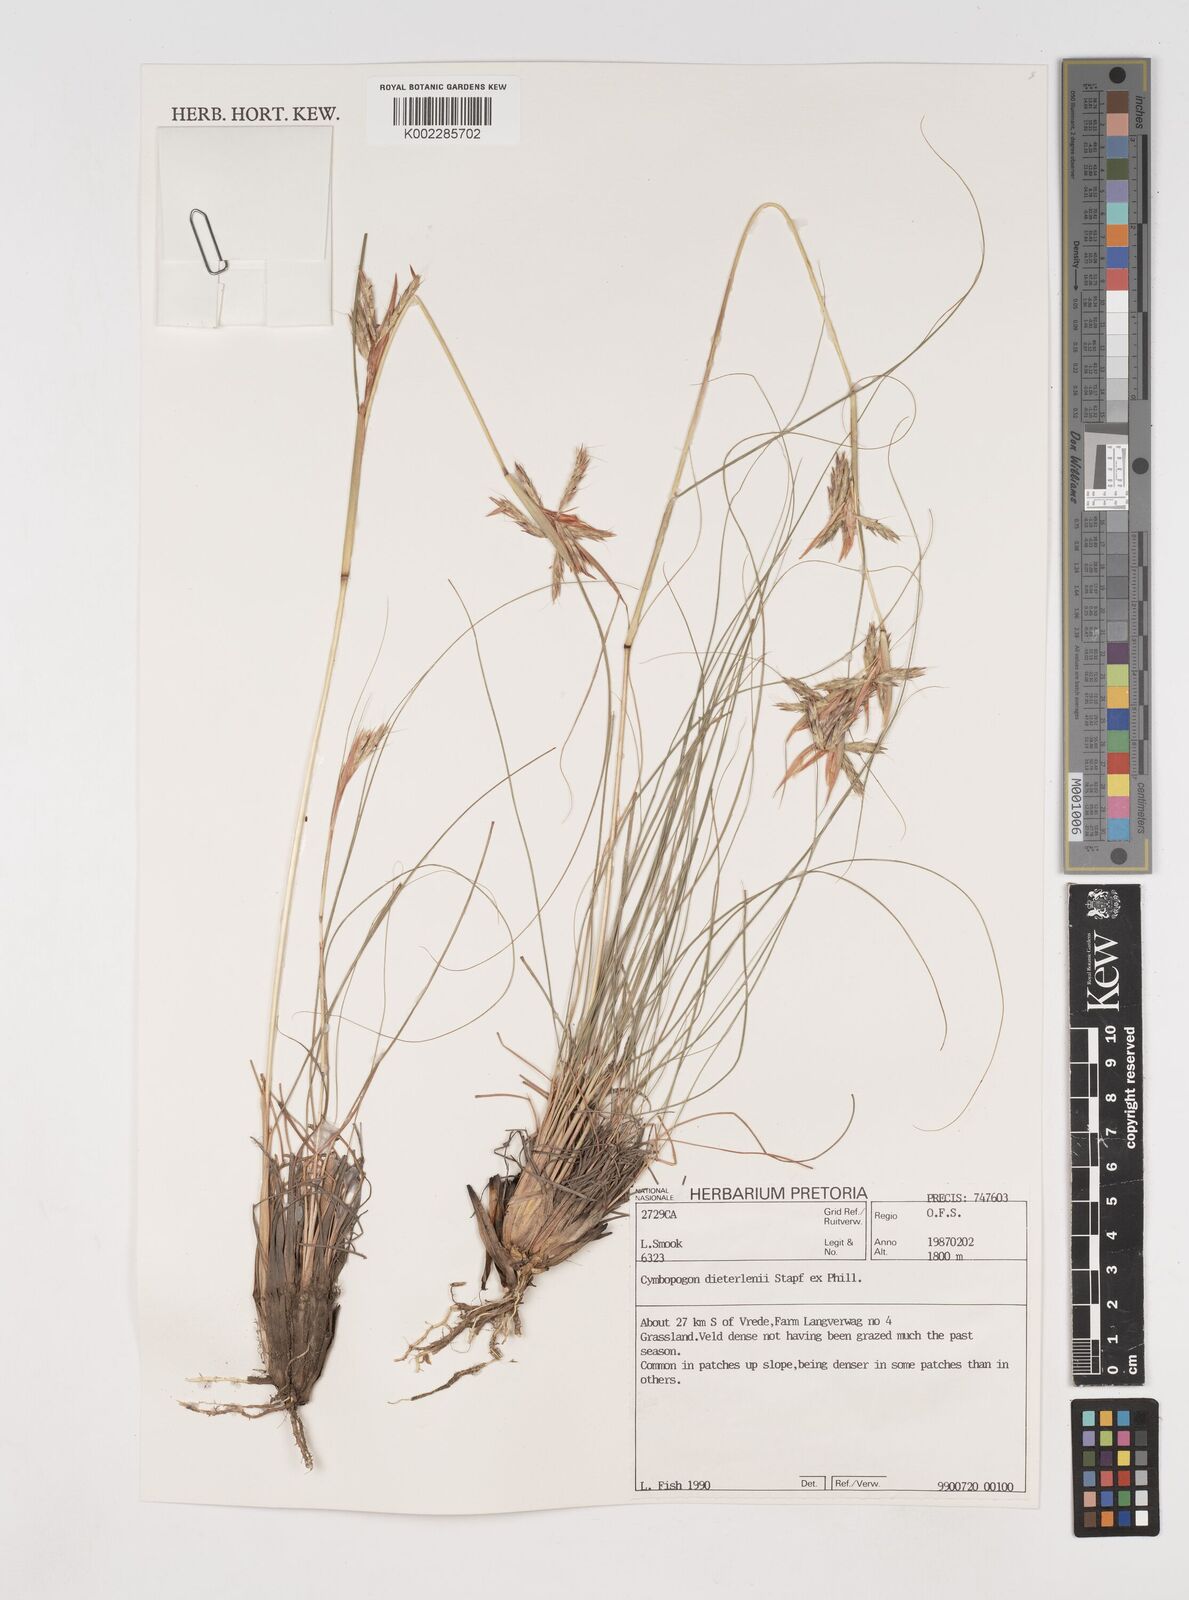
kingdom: Plantae
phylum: Tracheophyta
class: Liliopsida
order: Poales
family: Poaceae
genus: Cymbopogon
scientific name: Cymbopogon dieterlenii
